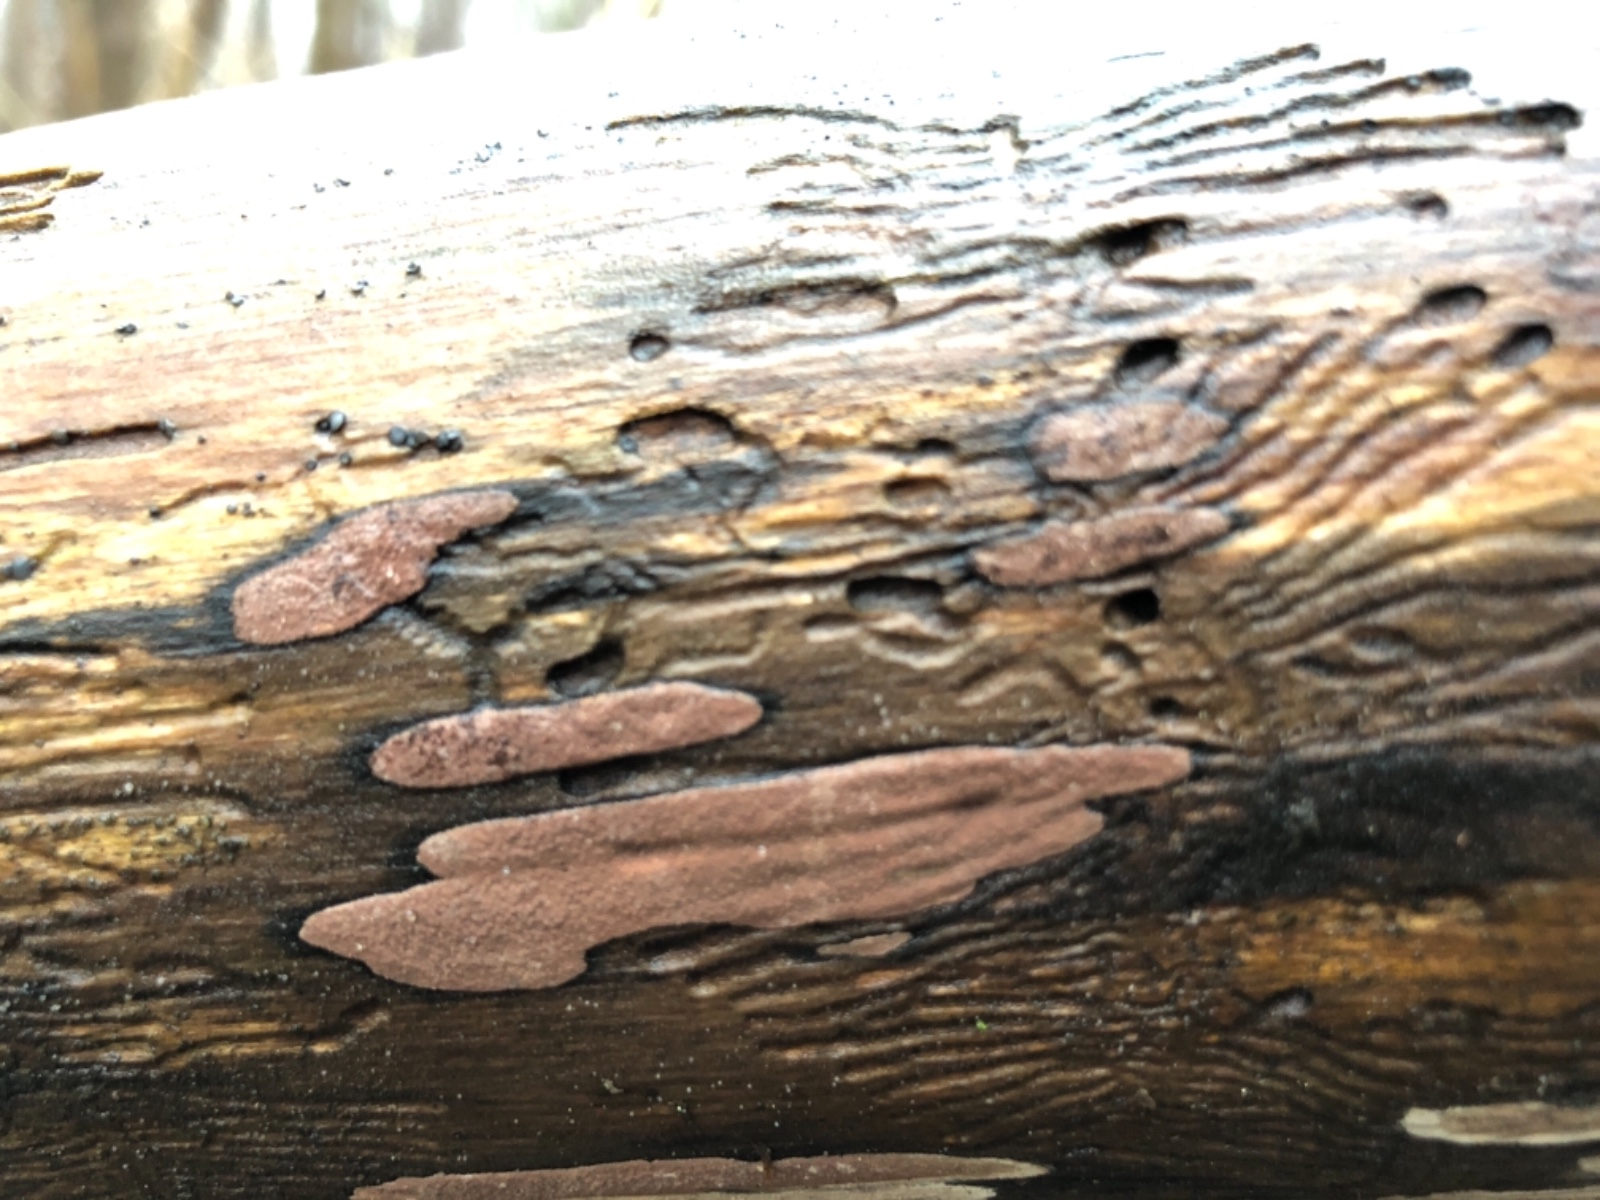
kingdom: Fungi
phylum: Ascomycota
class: Sordariomycetes
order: Xylariales
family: Hypoxylaceae
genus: Hypoxylon
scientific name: Hypoxylon petriniae
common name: nedsænket kulbær
